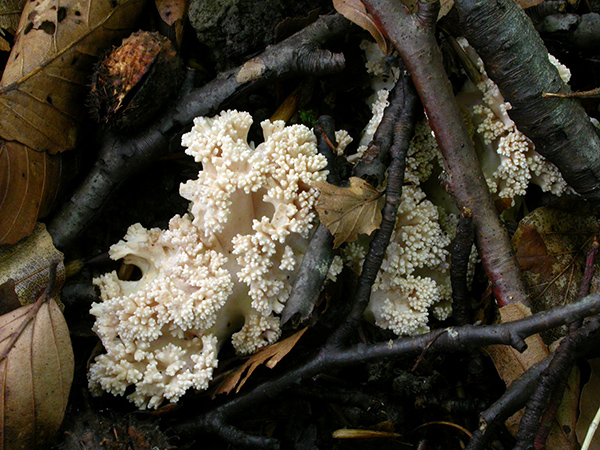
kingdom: Fungi
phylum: Basidiomycota
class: Agaricomycetes
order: Gomphales
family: Gomphaceae
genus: Ramaria
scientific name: Ramaria
